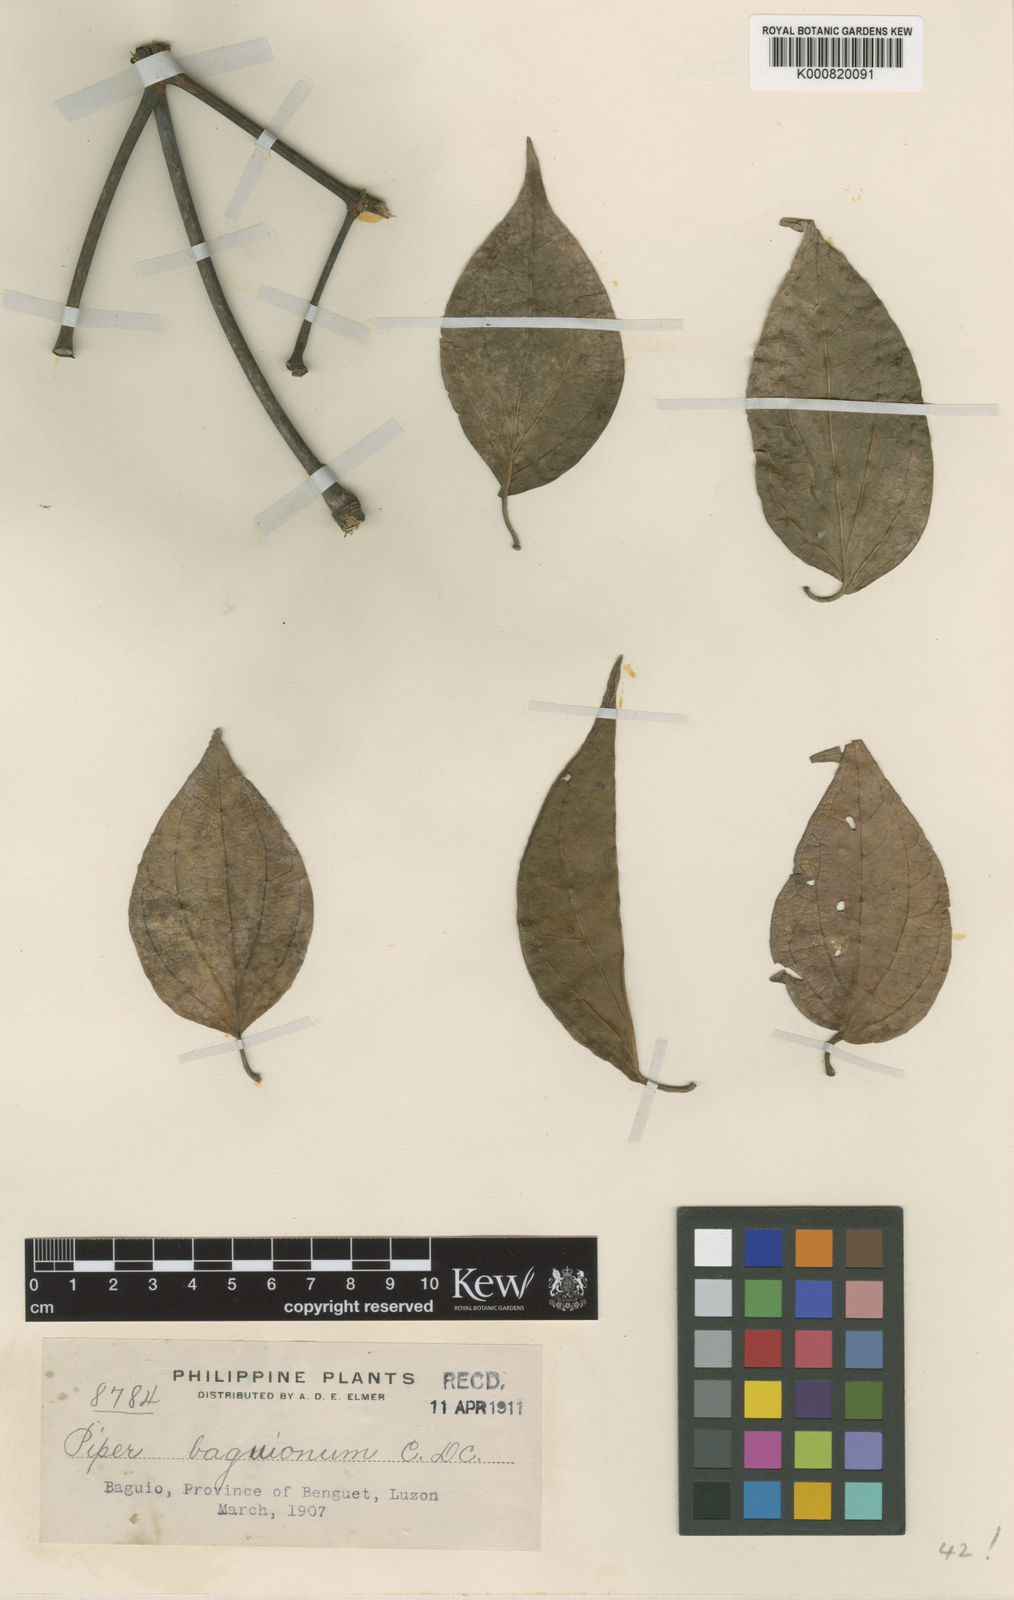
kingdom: Plantae
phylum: Tracheophyta
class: Magnoliopsida
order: Piperales
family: Piperaceae
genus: Piper
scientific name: Piper baguionum
